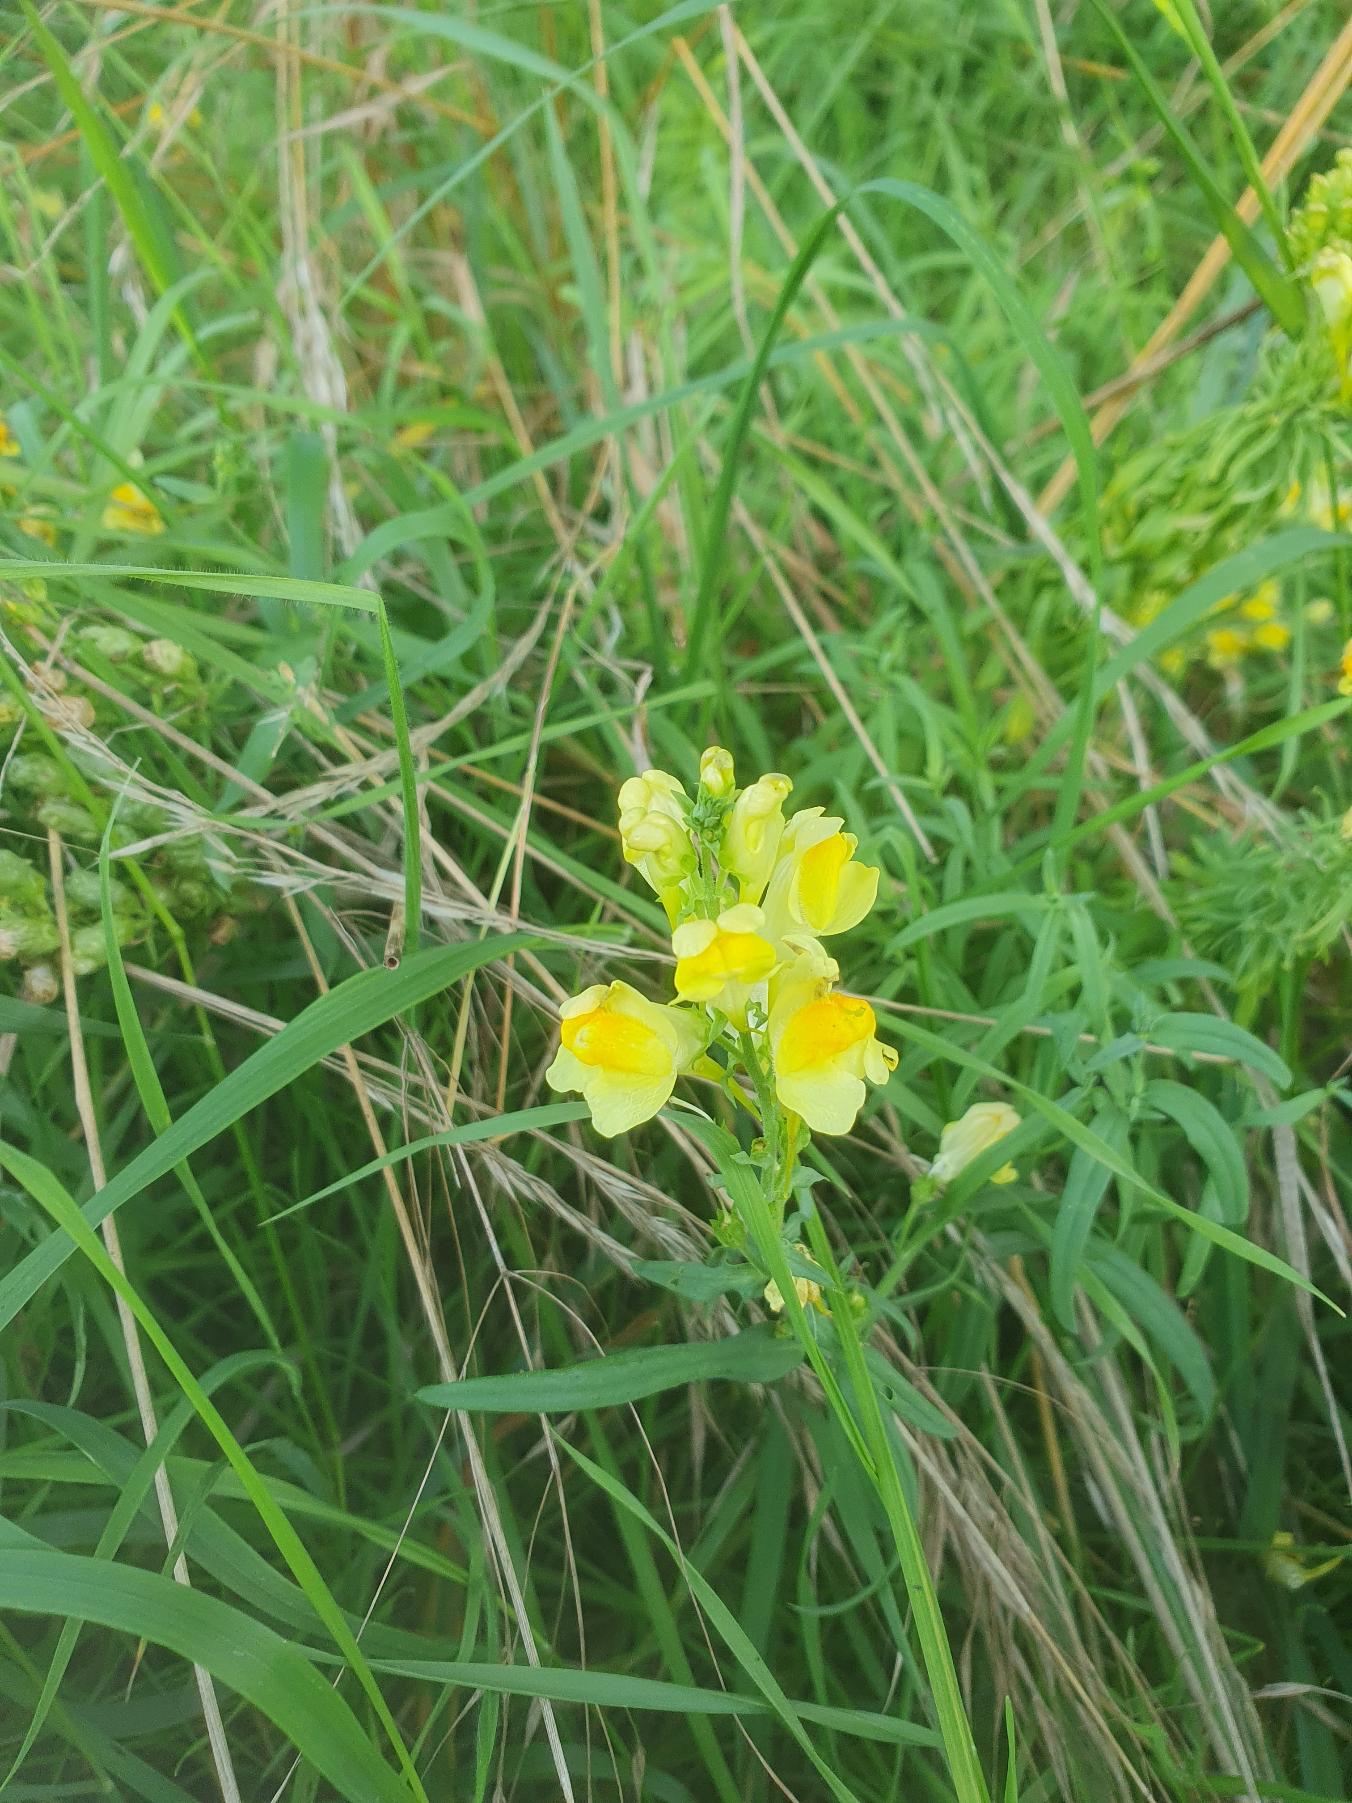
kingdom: Plantae
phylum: Tracheophyta
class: Magnoliopsida
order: Lamiales
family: Plantaginaceae
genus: Linaria
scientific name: Linaria vulgaris
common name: Almindelig torskemund
